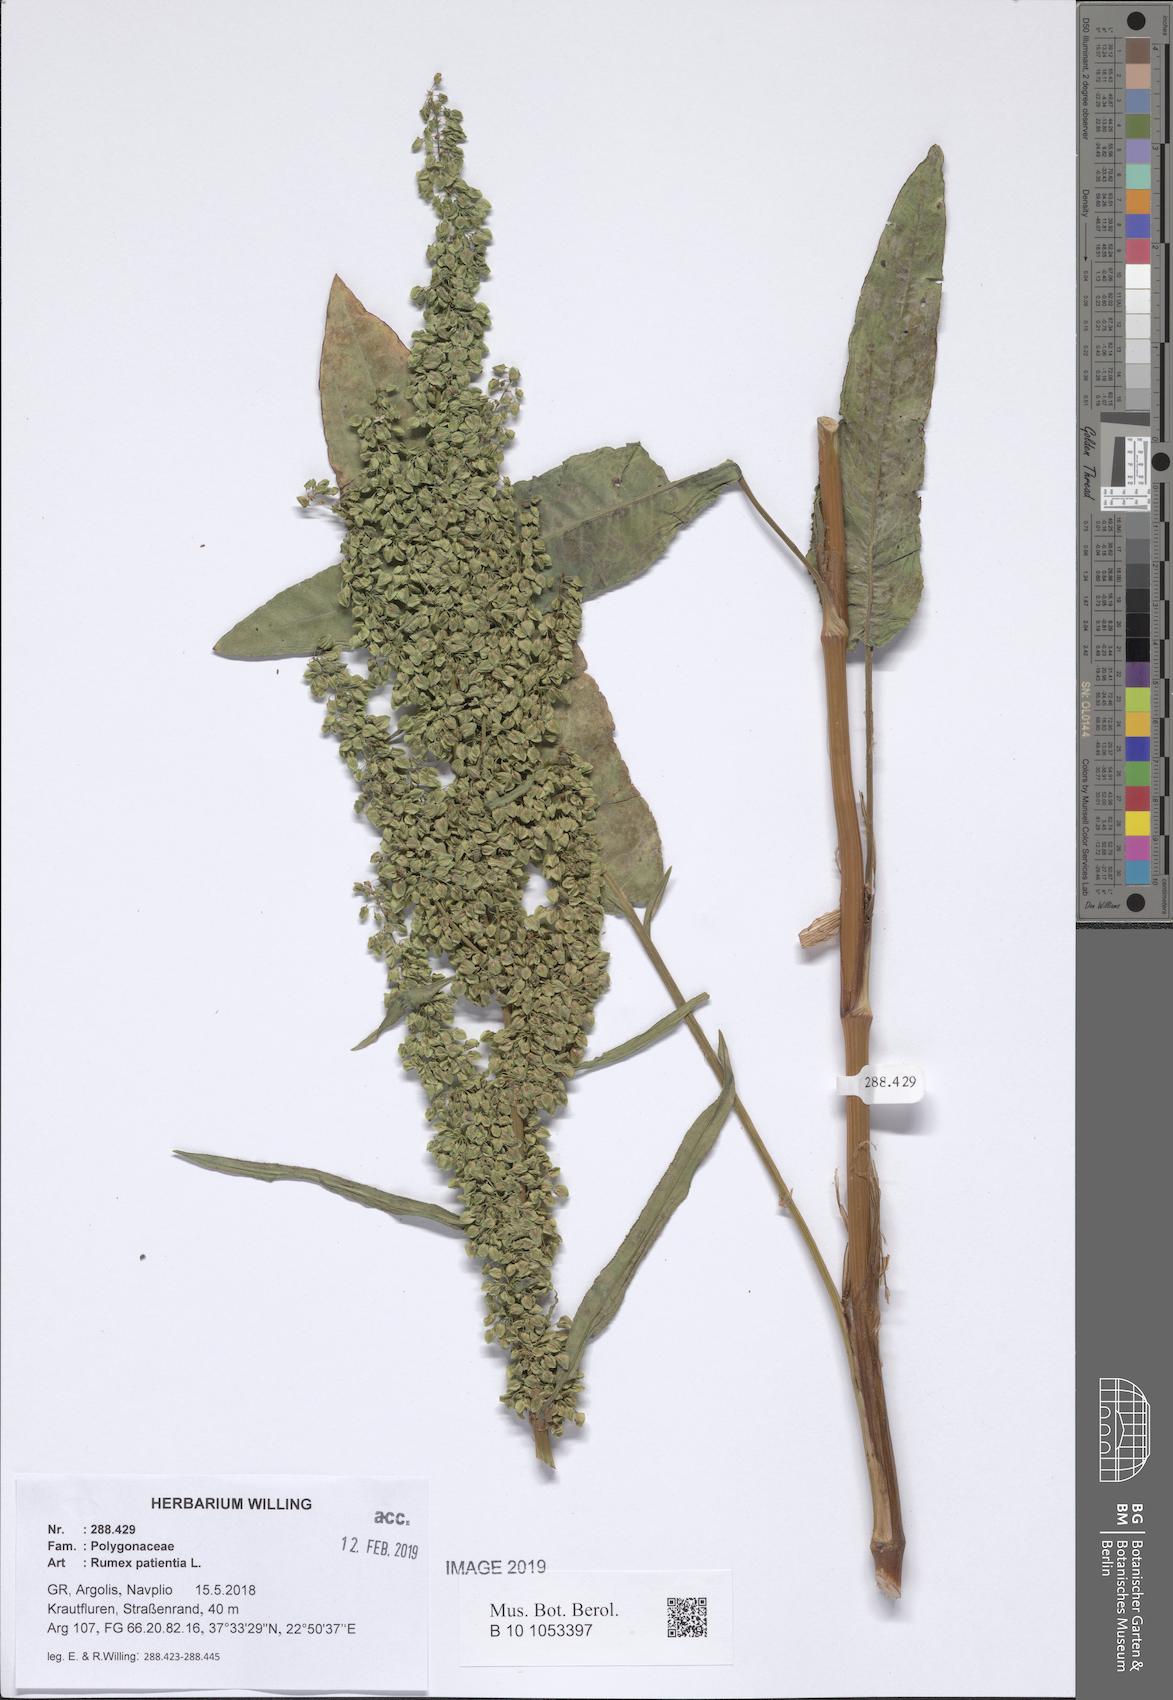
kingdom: Plantae
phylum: Tracheophyta
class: Magnoliopsida
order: Caryophyllales
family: Polygonaceae
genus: Rumex
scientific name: Rumex patientia
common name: Patience dock
